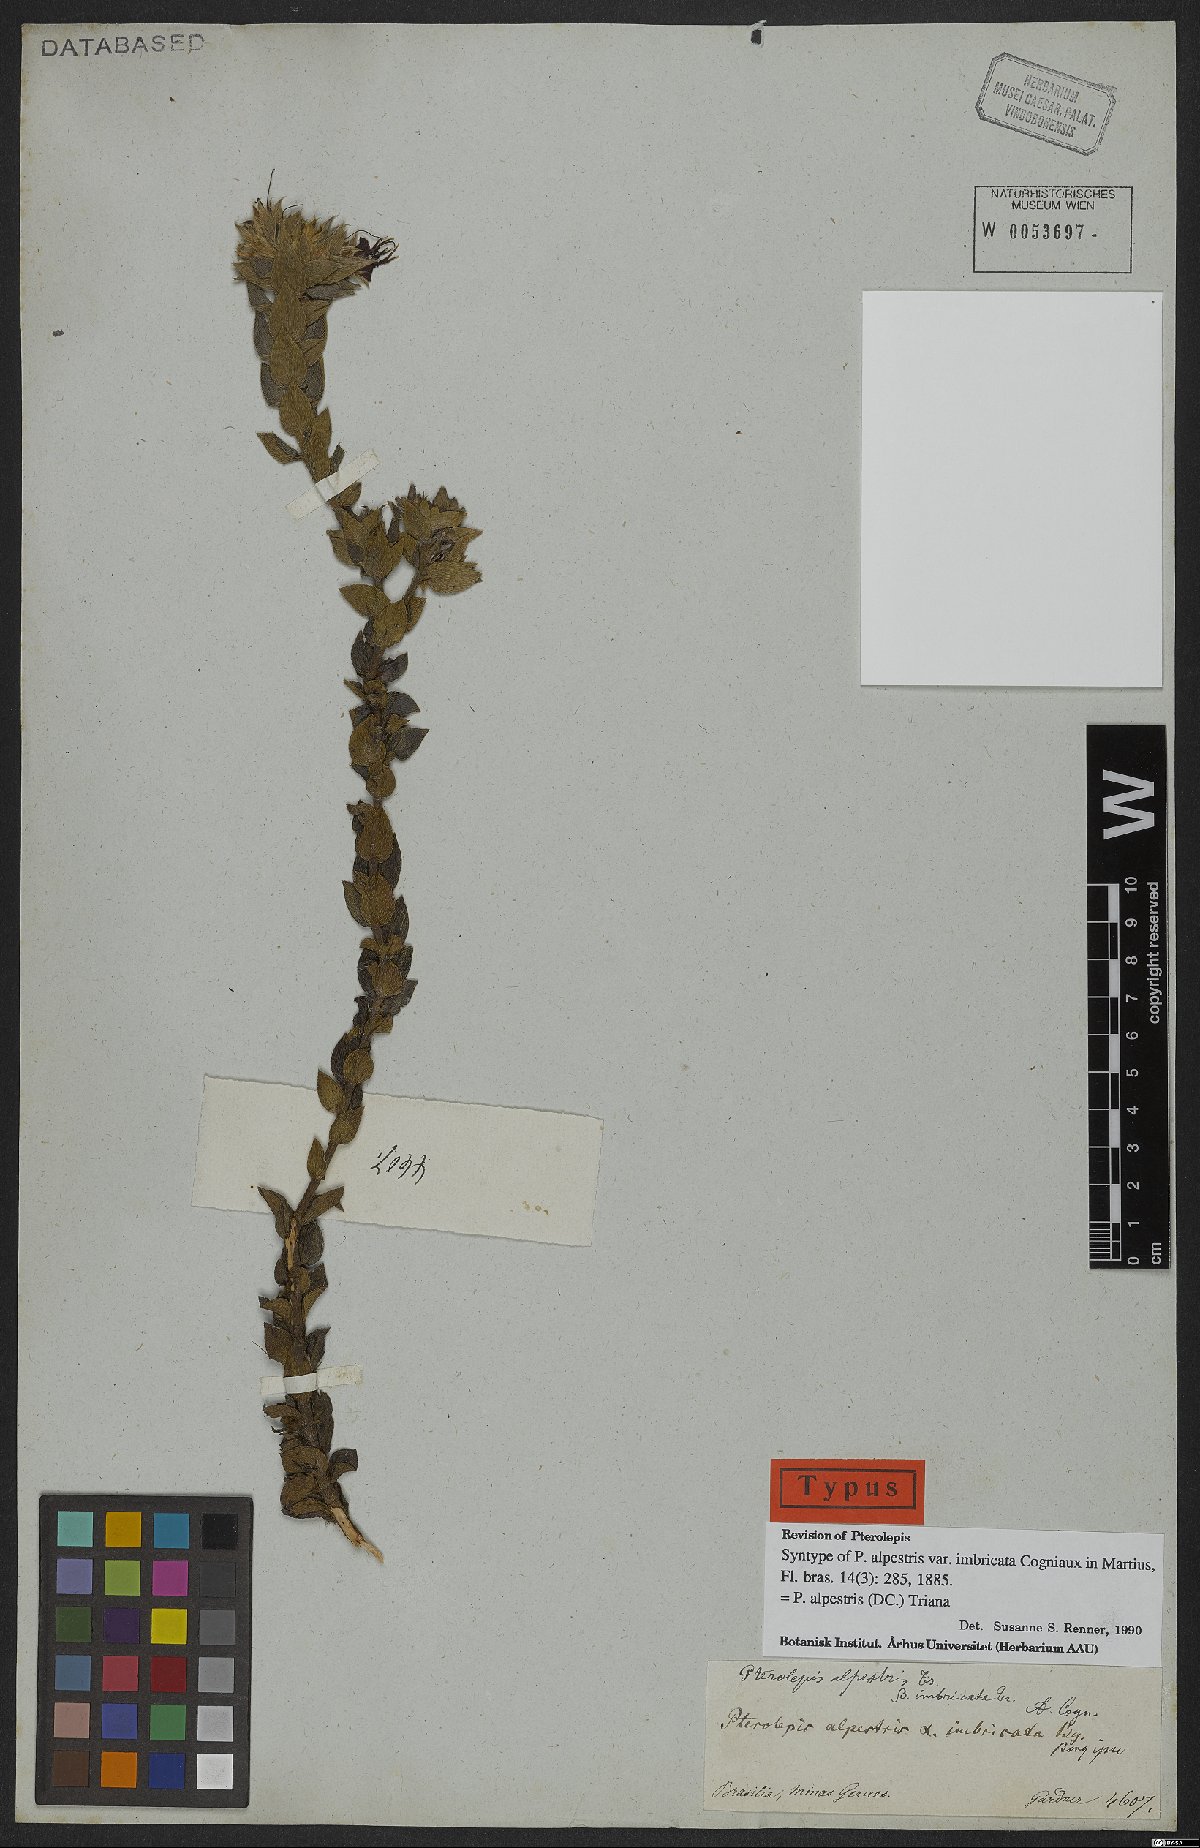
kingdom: Plantae
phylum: Tracheophyta
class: Magnoliopsida
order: Myrtales
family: Melastomataceae
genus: Pterolepis
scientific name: Pterolepis alpestris
